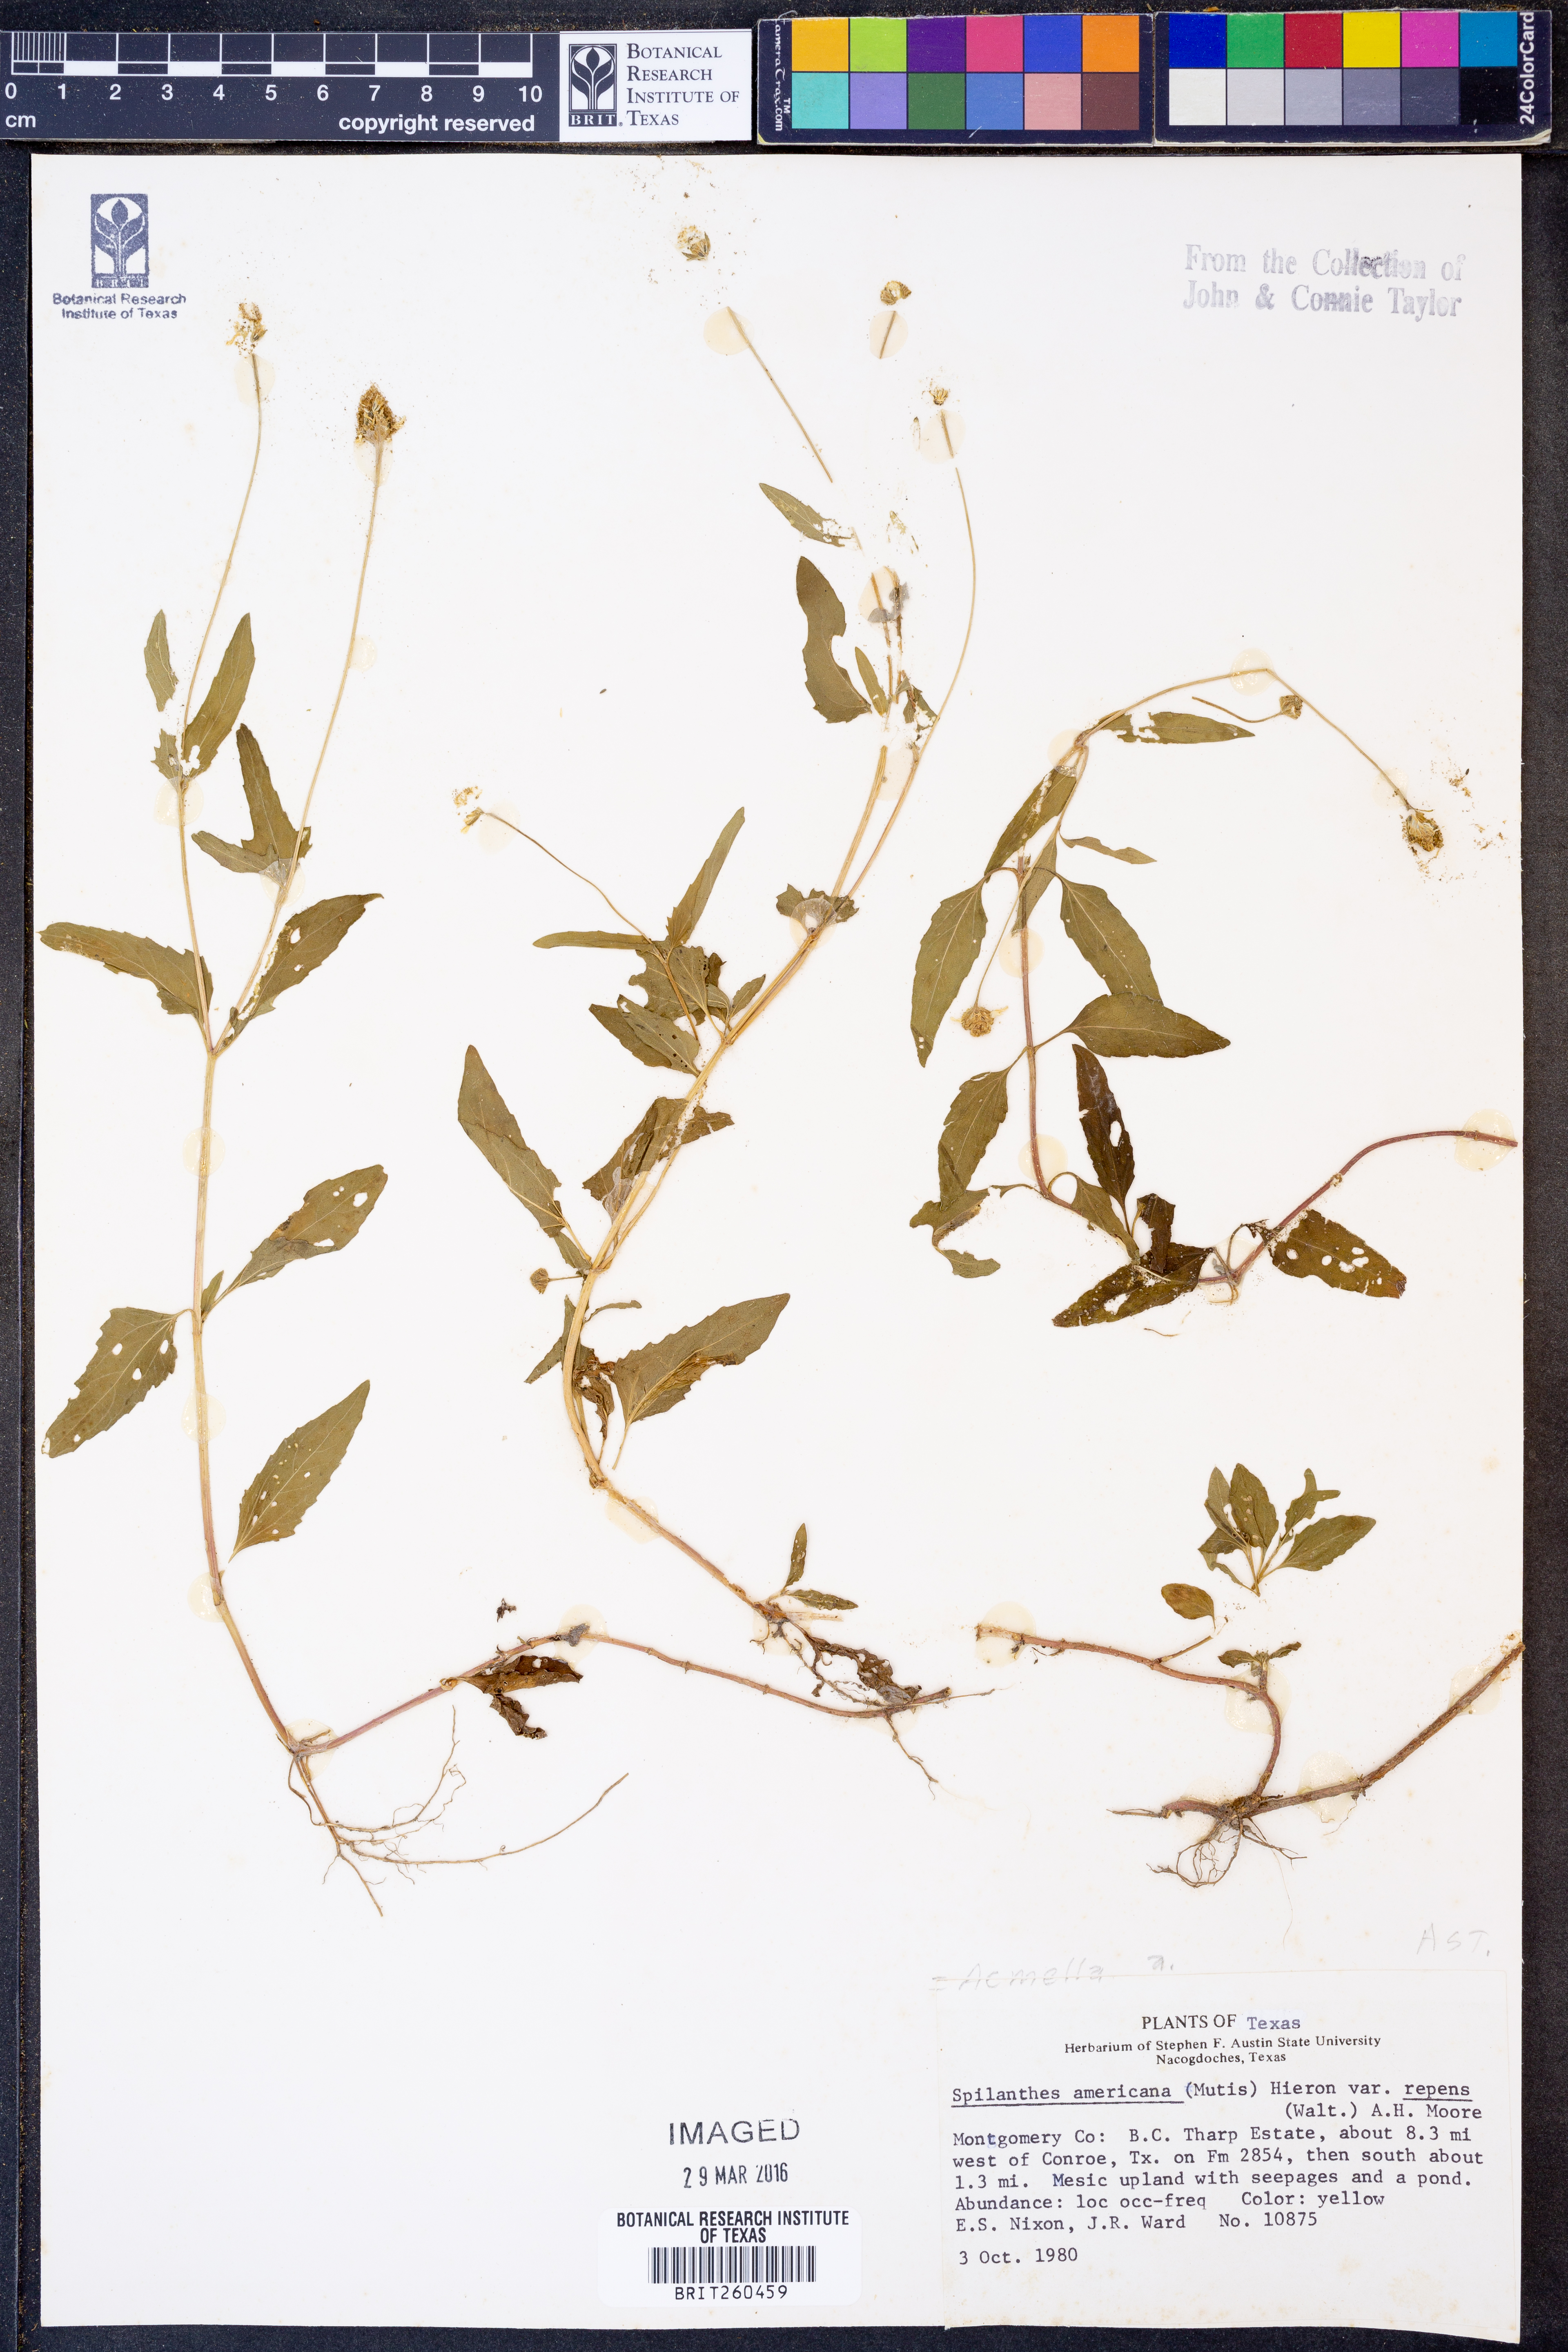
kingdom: Plantae
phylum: Tracheophyta
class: Magnoliopsida
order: Asterales
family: Asteraceae
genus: Acmella
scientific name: Acmella
